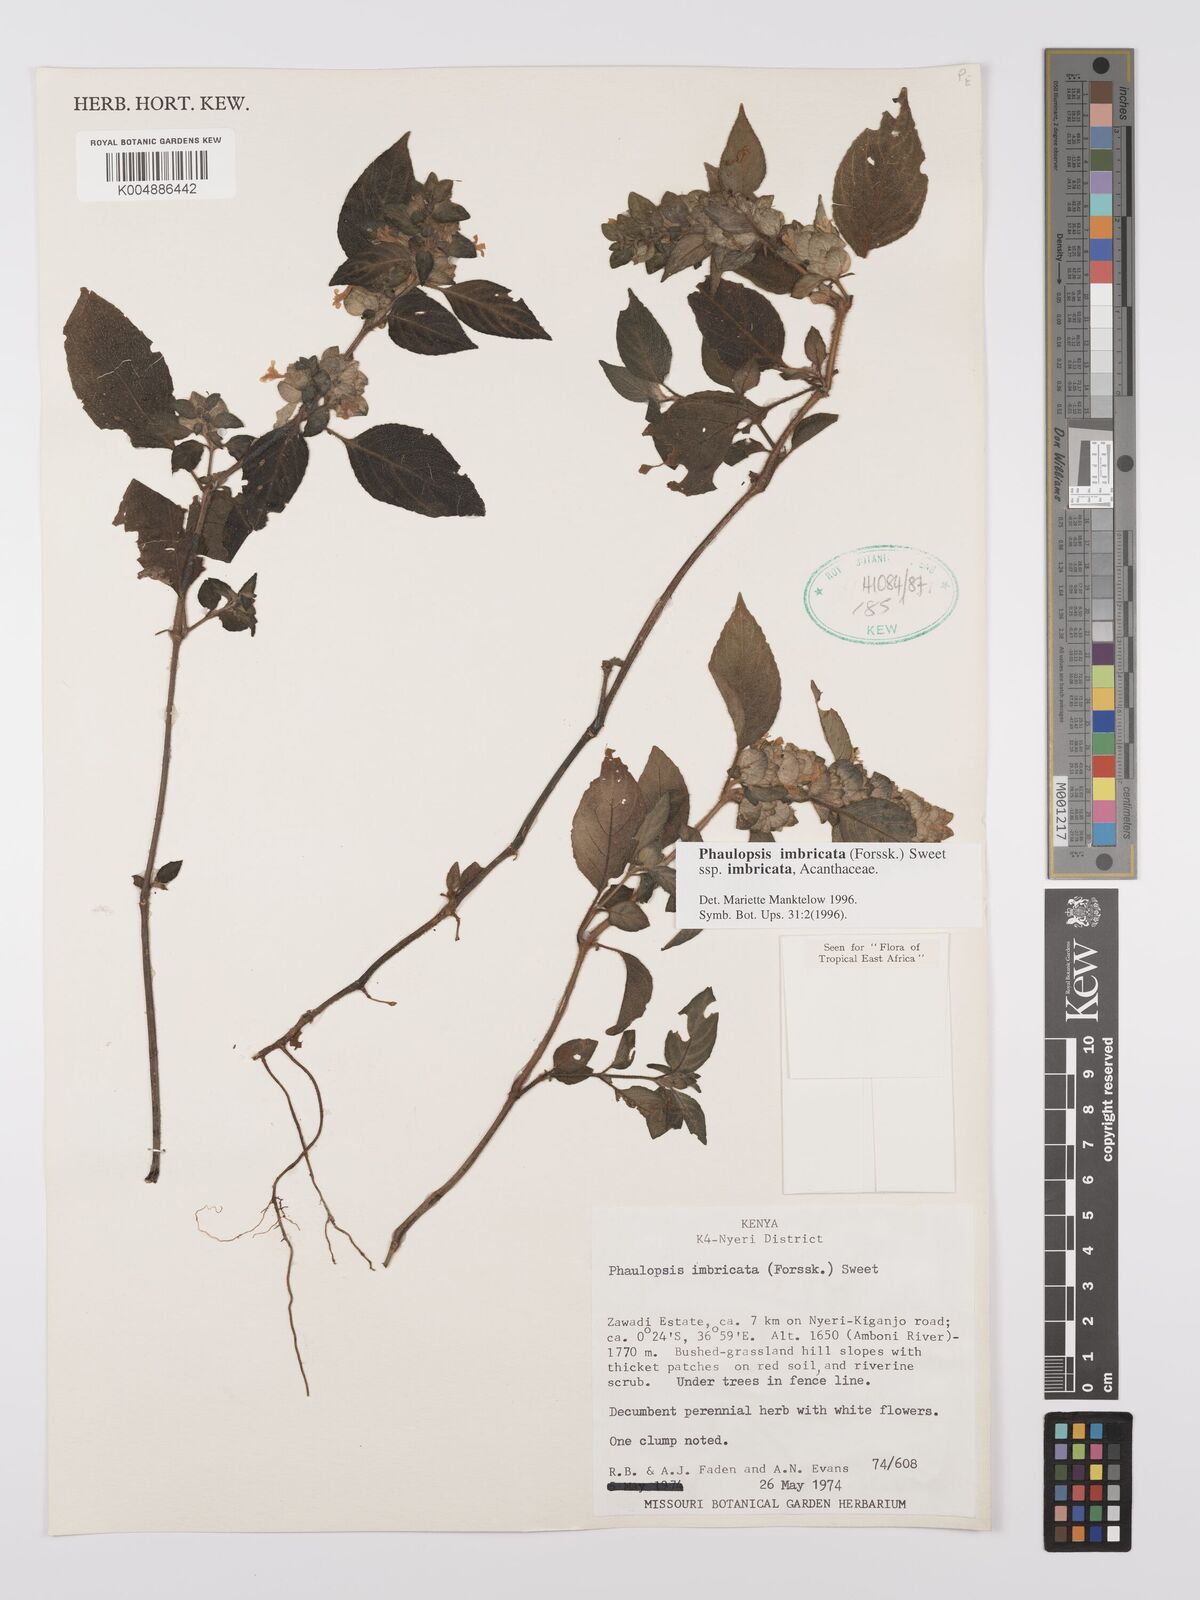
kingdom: Plantae
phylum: Tracheophyta
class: Magnoliopsida
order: Lamiales
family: Acanthaceae
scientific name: Acanthaceae
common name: Acanthaceae
